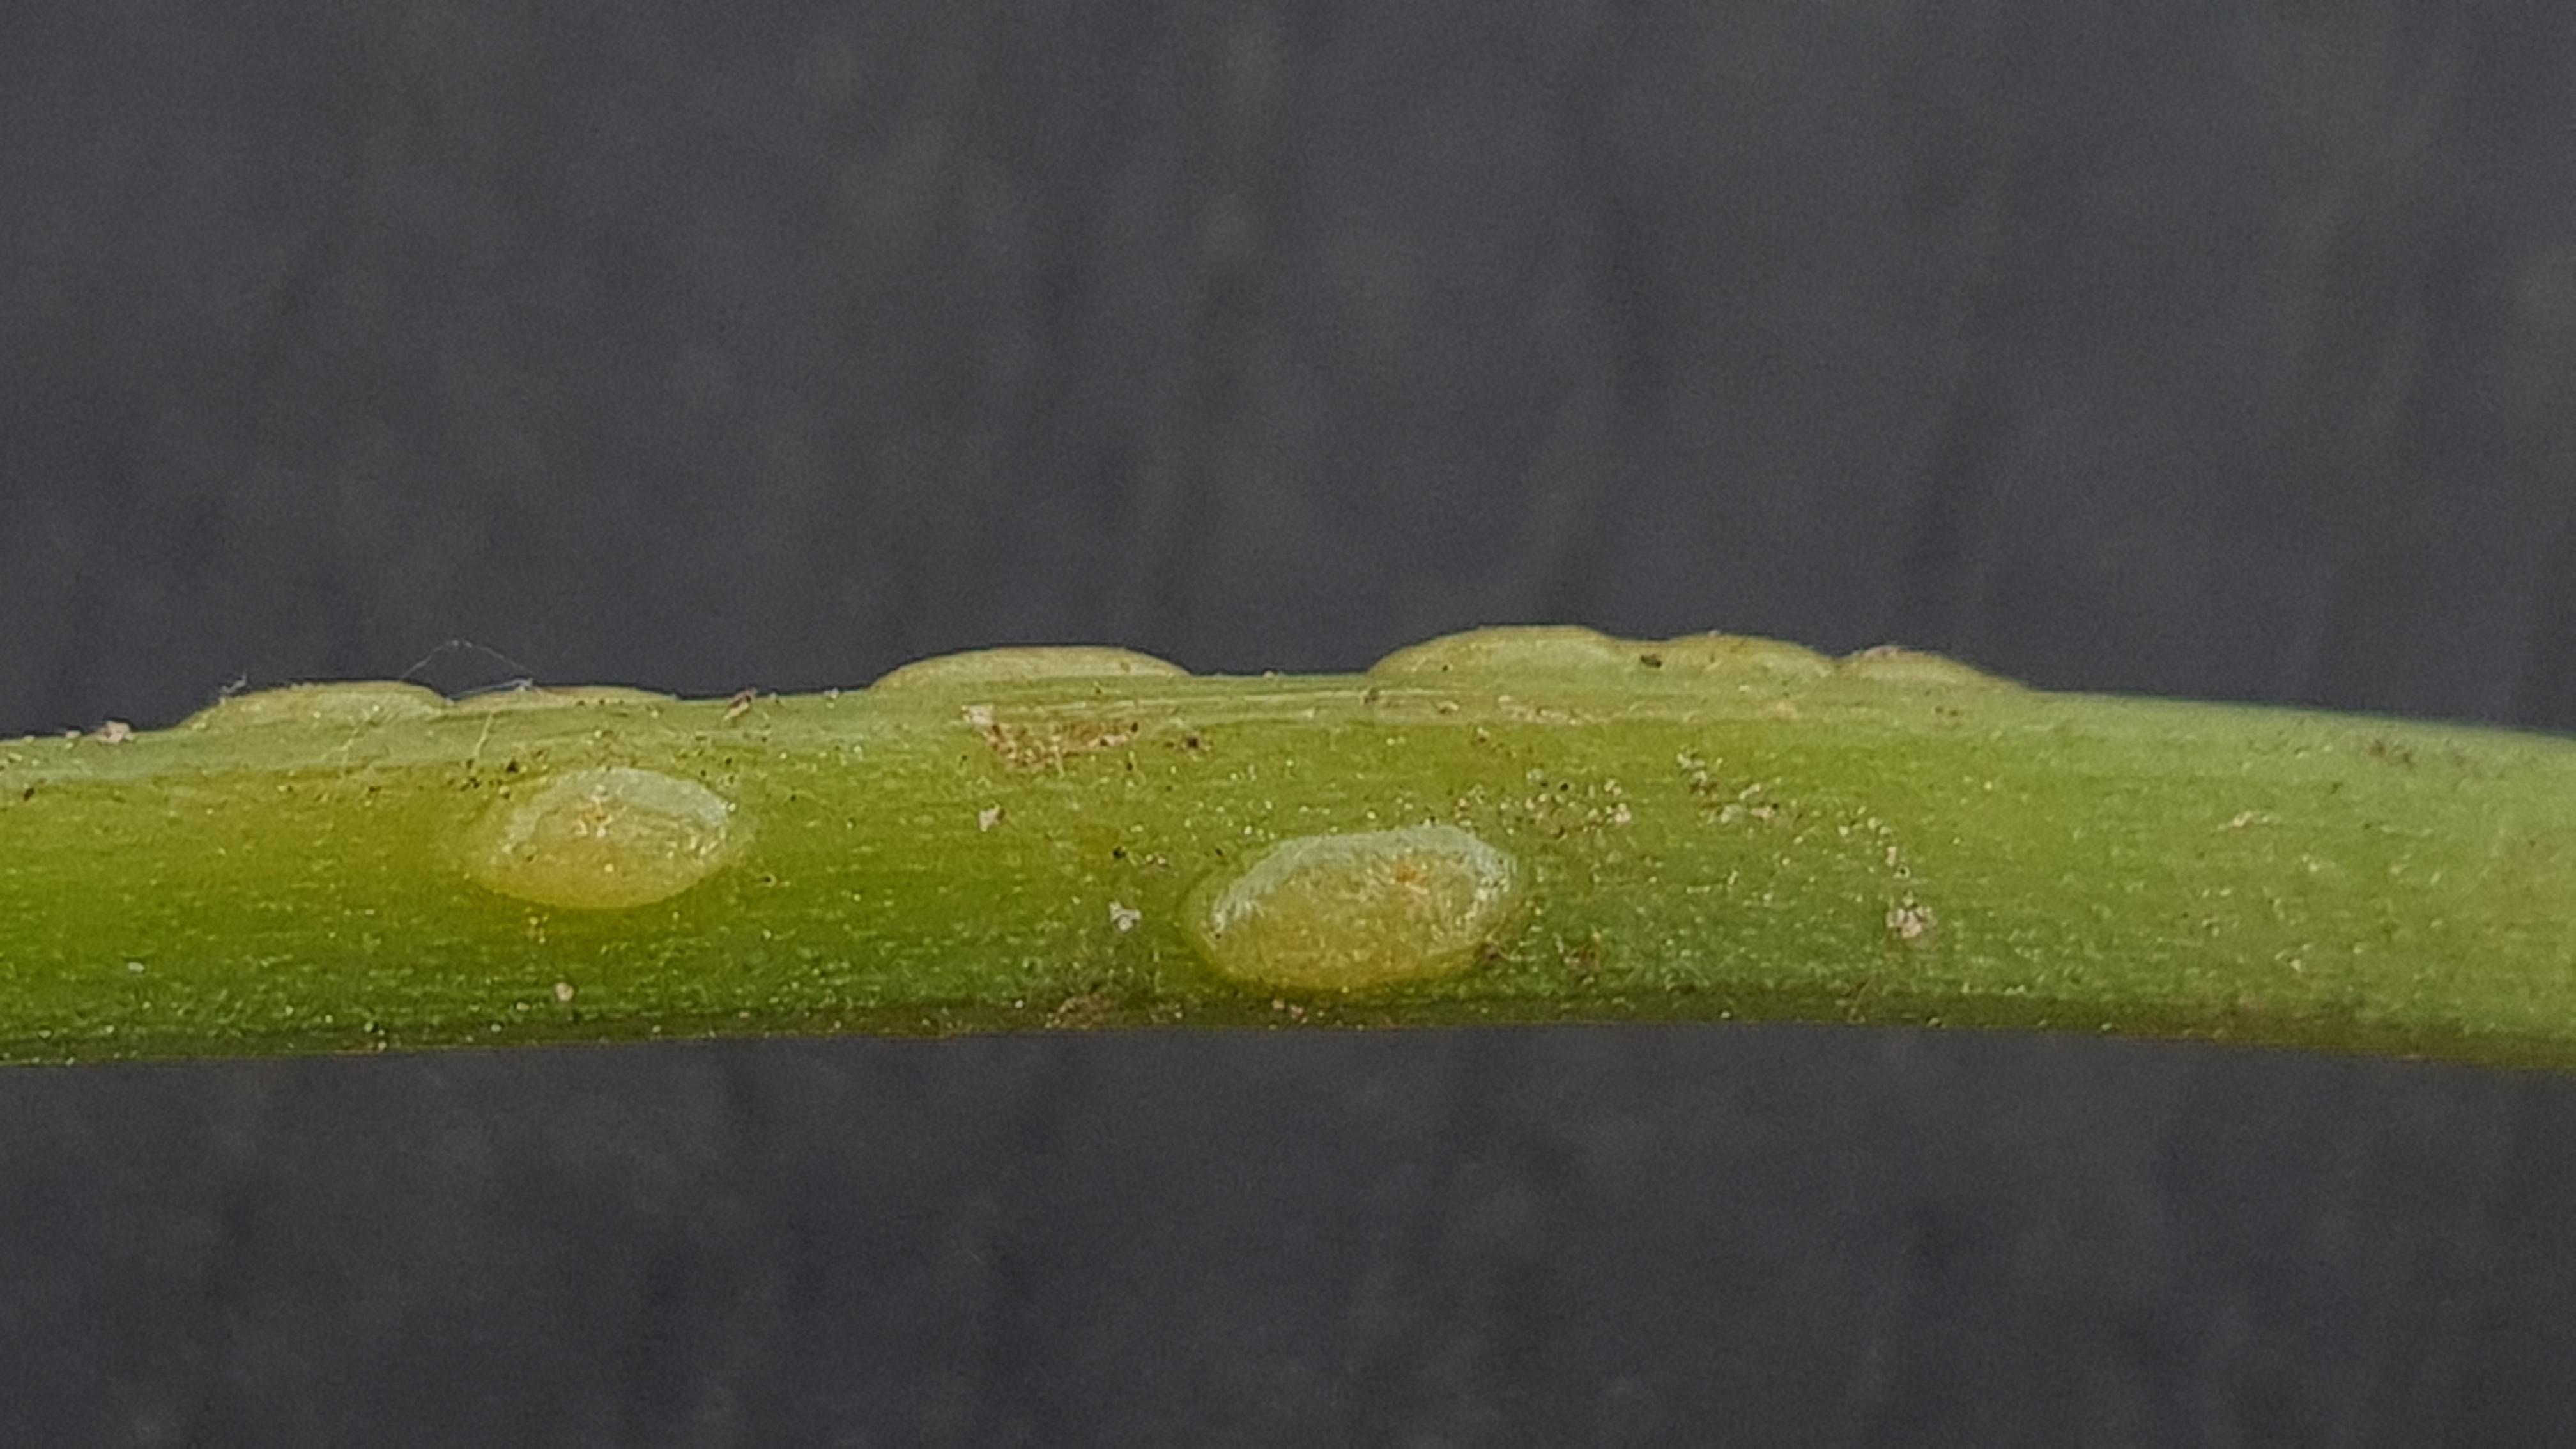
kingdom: Fungi
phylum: Ascomycota
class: Taphrinomycetes
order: Taphrinales
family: Taphrinaceae
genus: Protomyces
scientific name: Protomyces macrosporus
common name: skvalderkål-vablesæk
